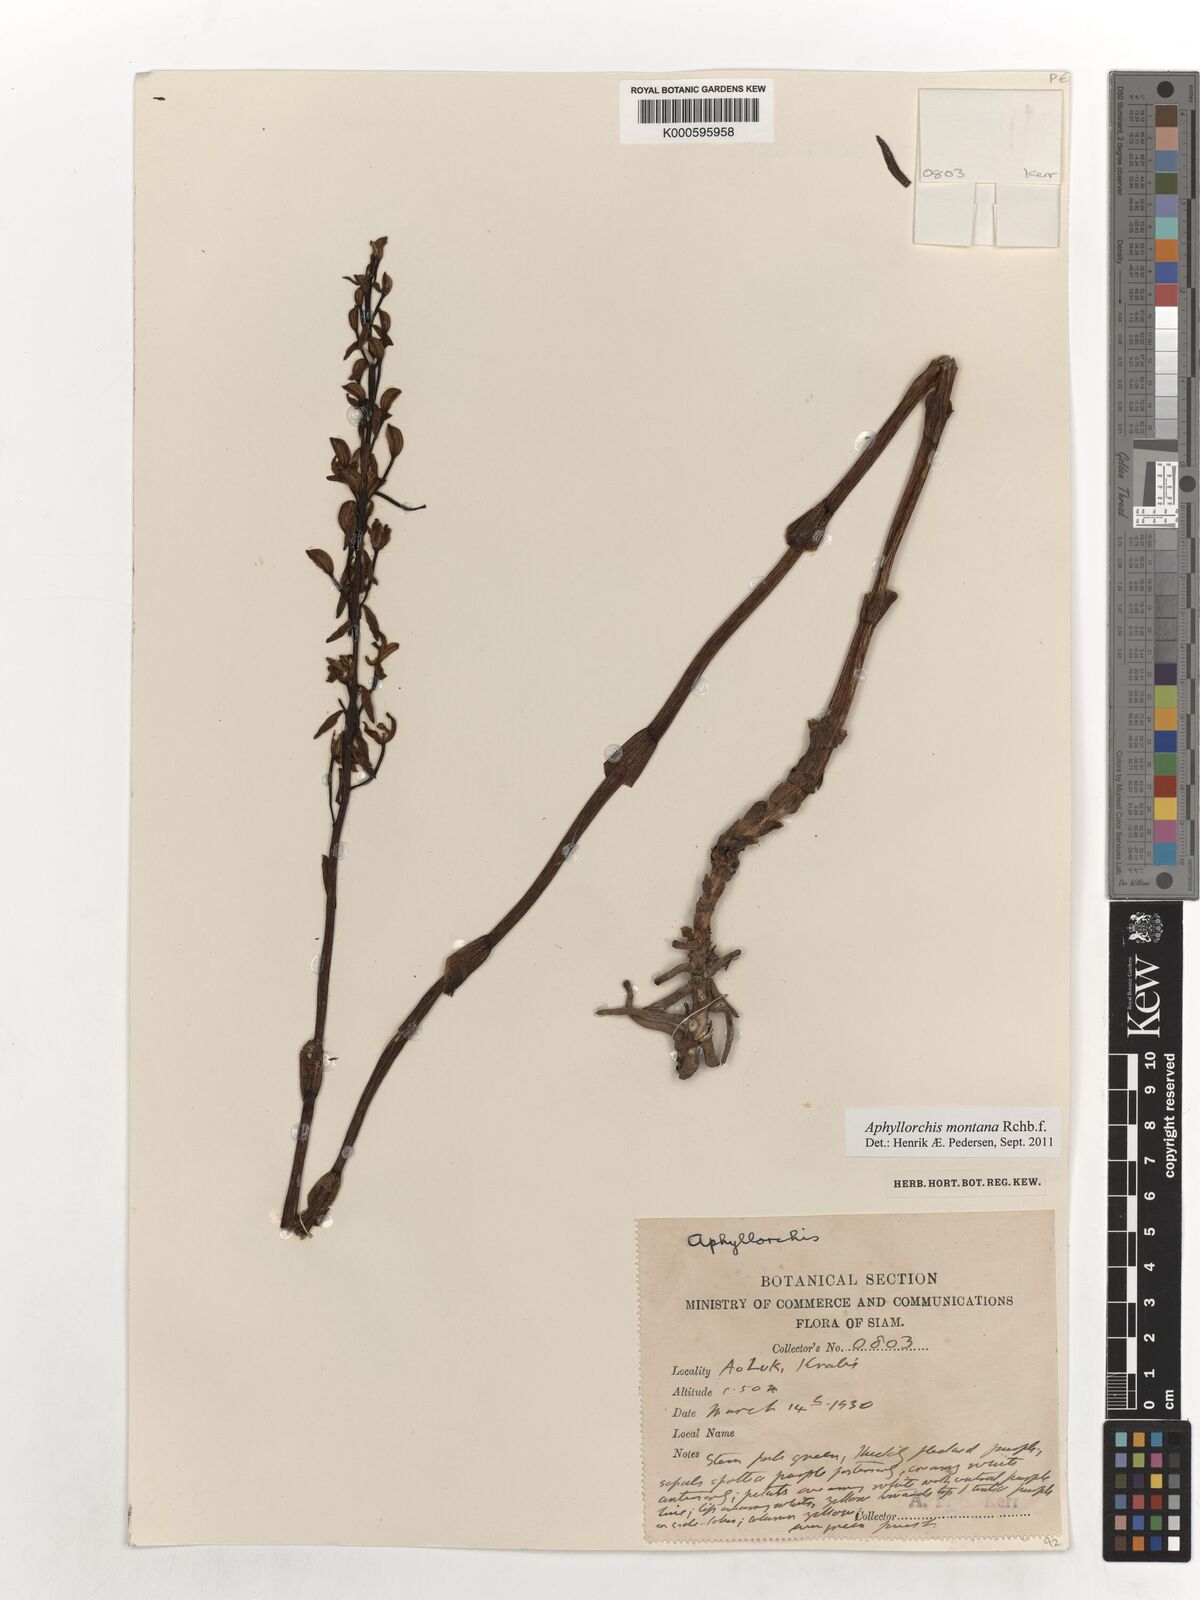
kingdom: Plantae
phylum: Tracheophyta
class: Liliopsida
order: Asparagales
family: Orchidaceae
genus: Aphyllorchis
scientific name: Aphyllorchis
